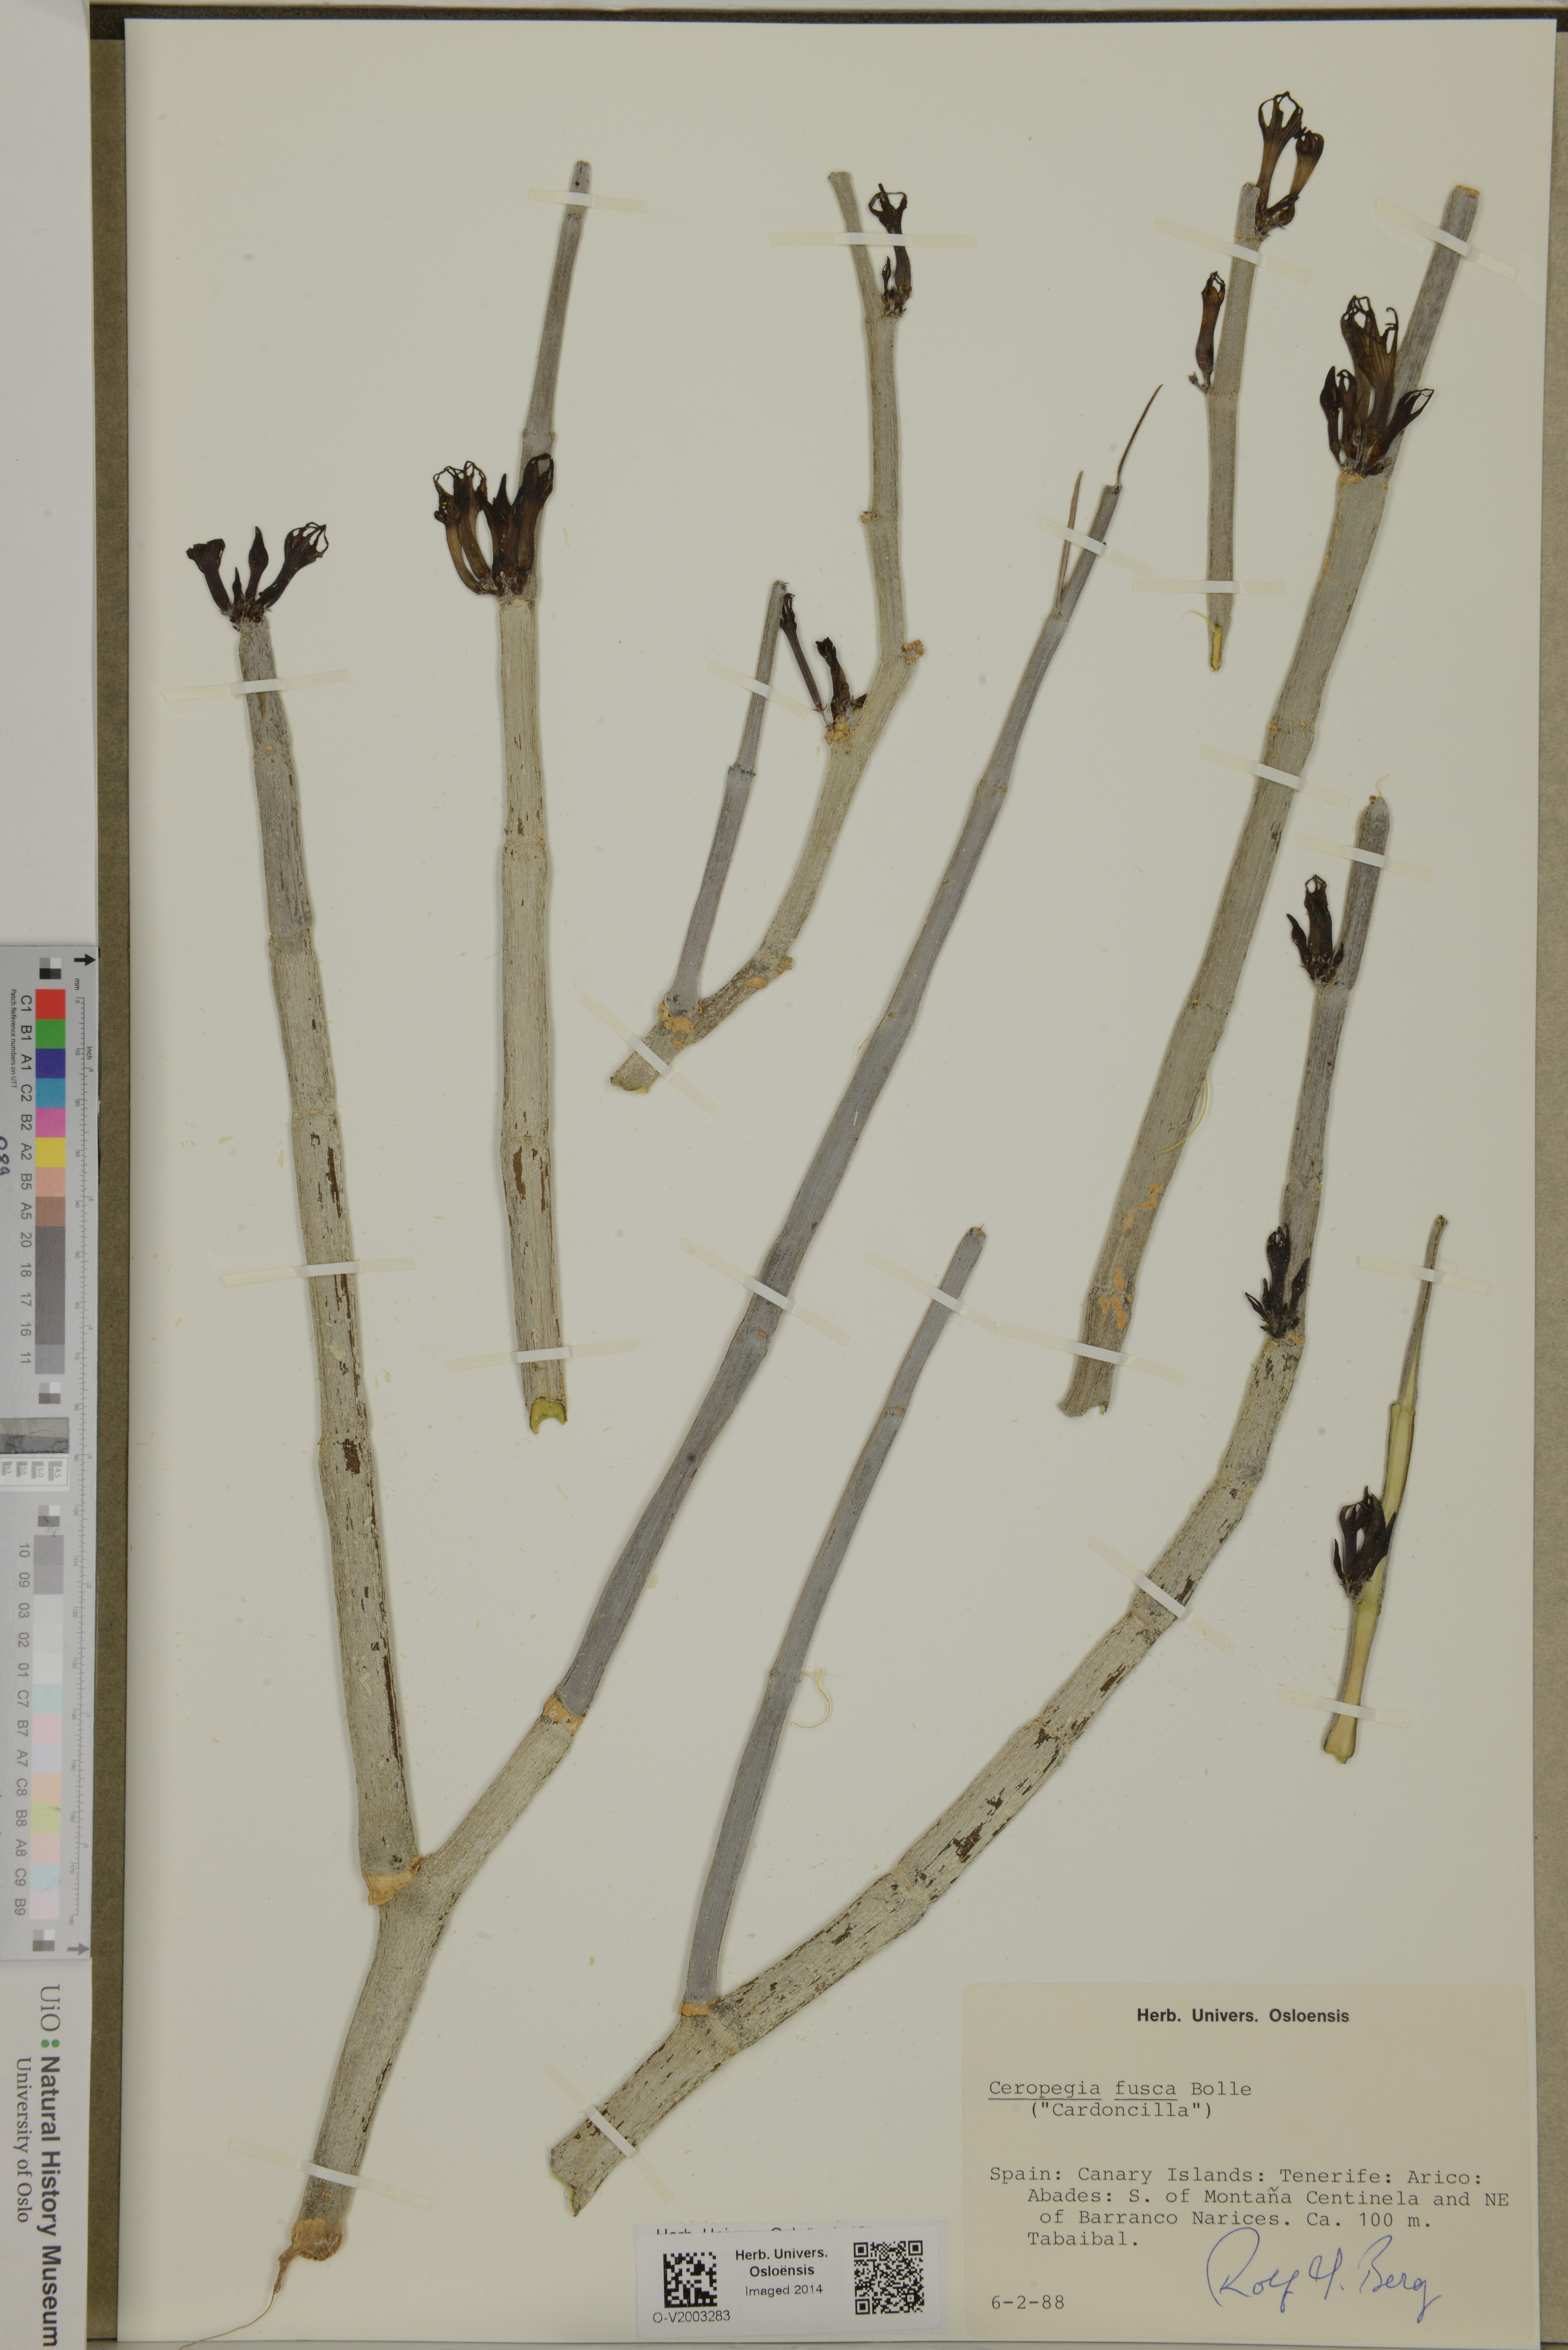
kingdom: Plantae
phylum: Tracheophyta
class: Magnoliopsida
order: Gentianales
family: Apocynaceae
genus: Ceropegia
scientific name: Ceropegia fusca
